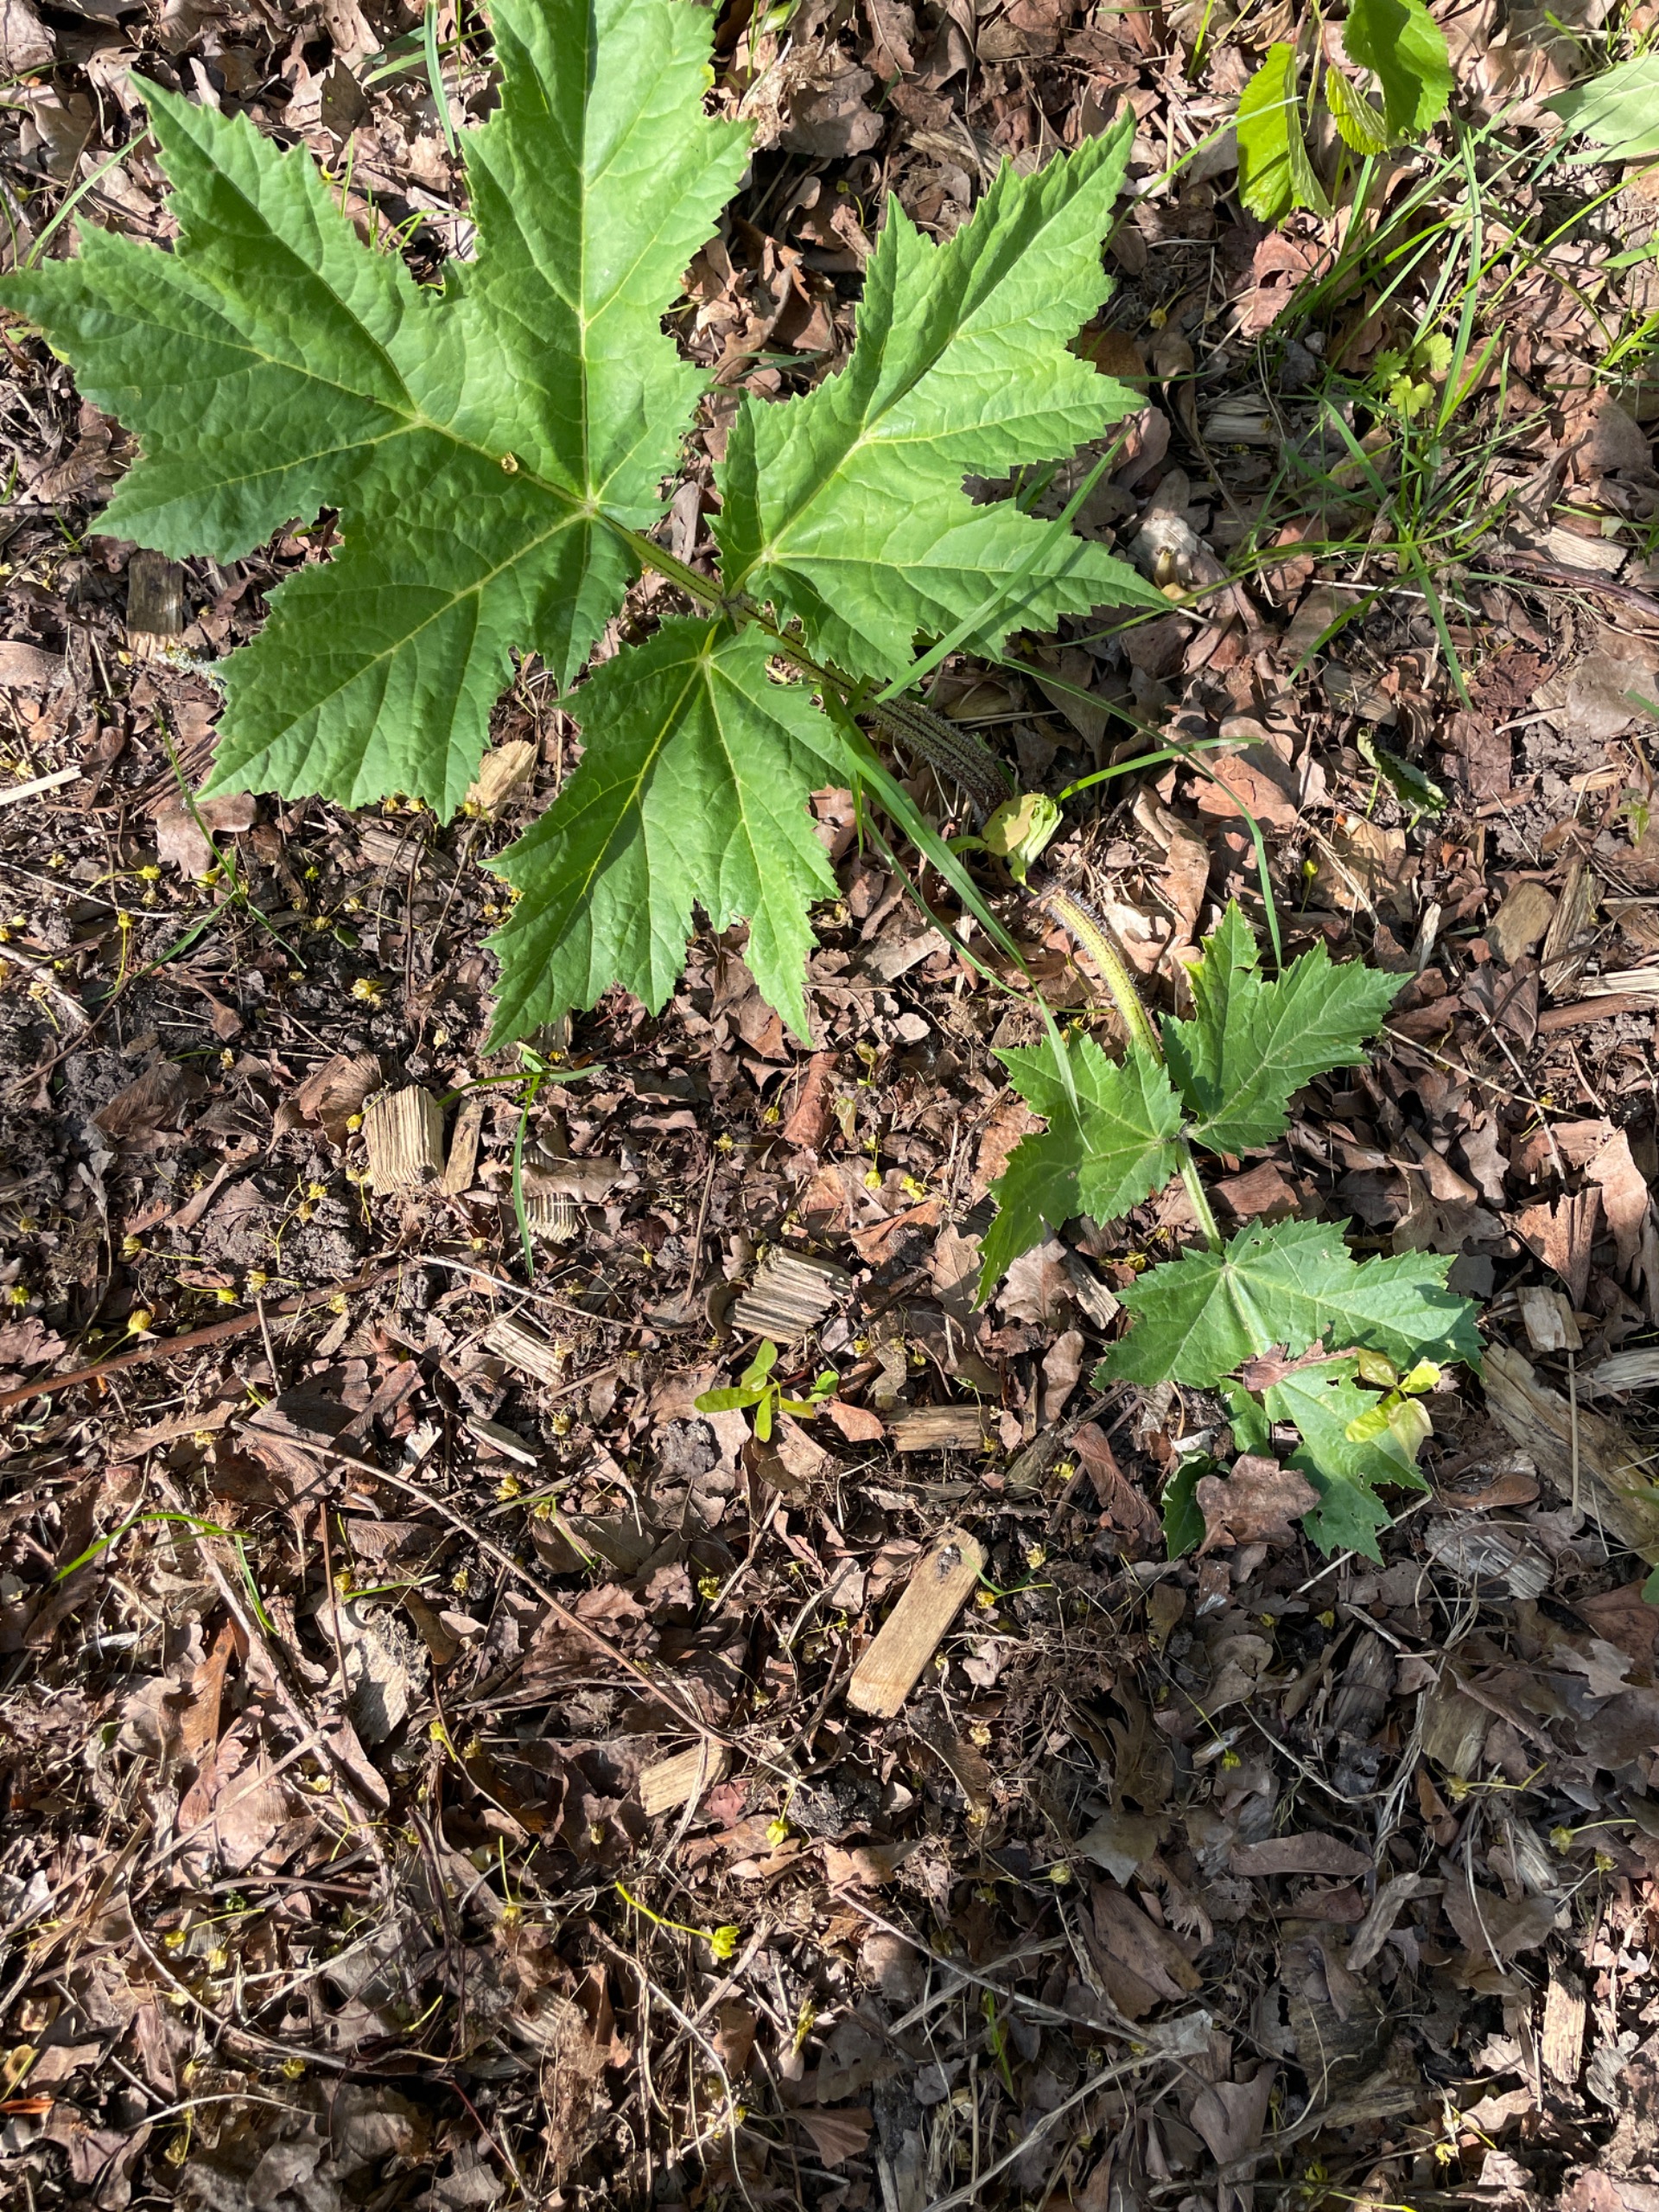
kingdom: Plantae
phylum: Tracheophyta
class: Magnoliopsida
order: Apiales
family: Apiaceae
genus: Heracleum
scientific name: Heracleum mantegazzianum
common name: Kæmpe-bjørneklo
